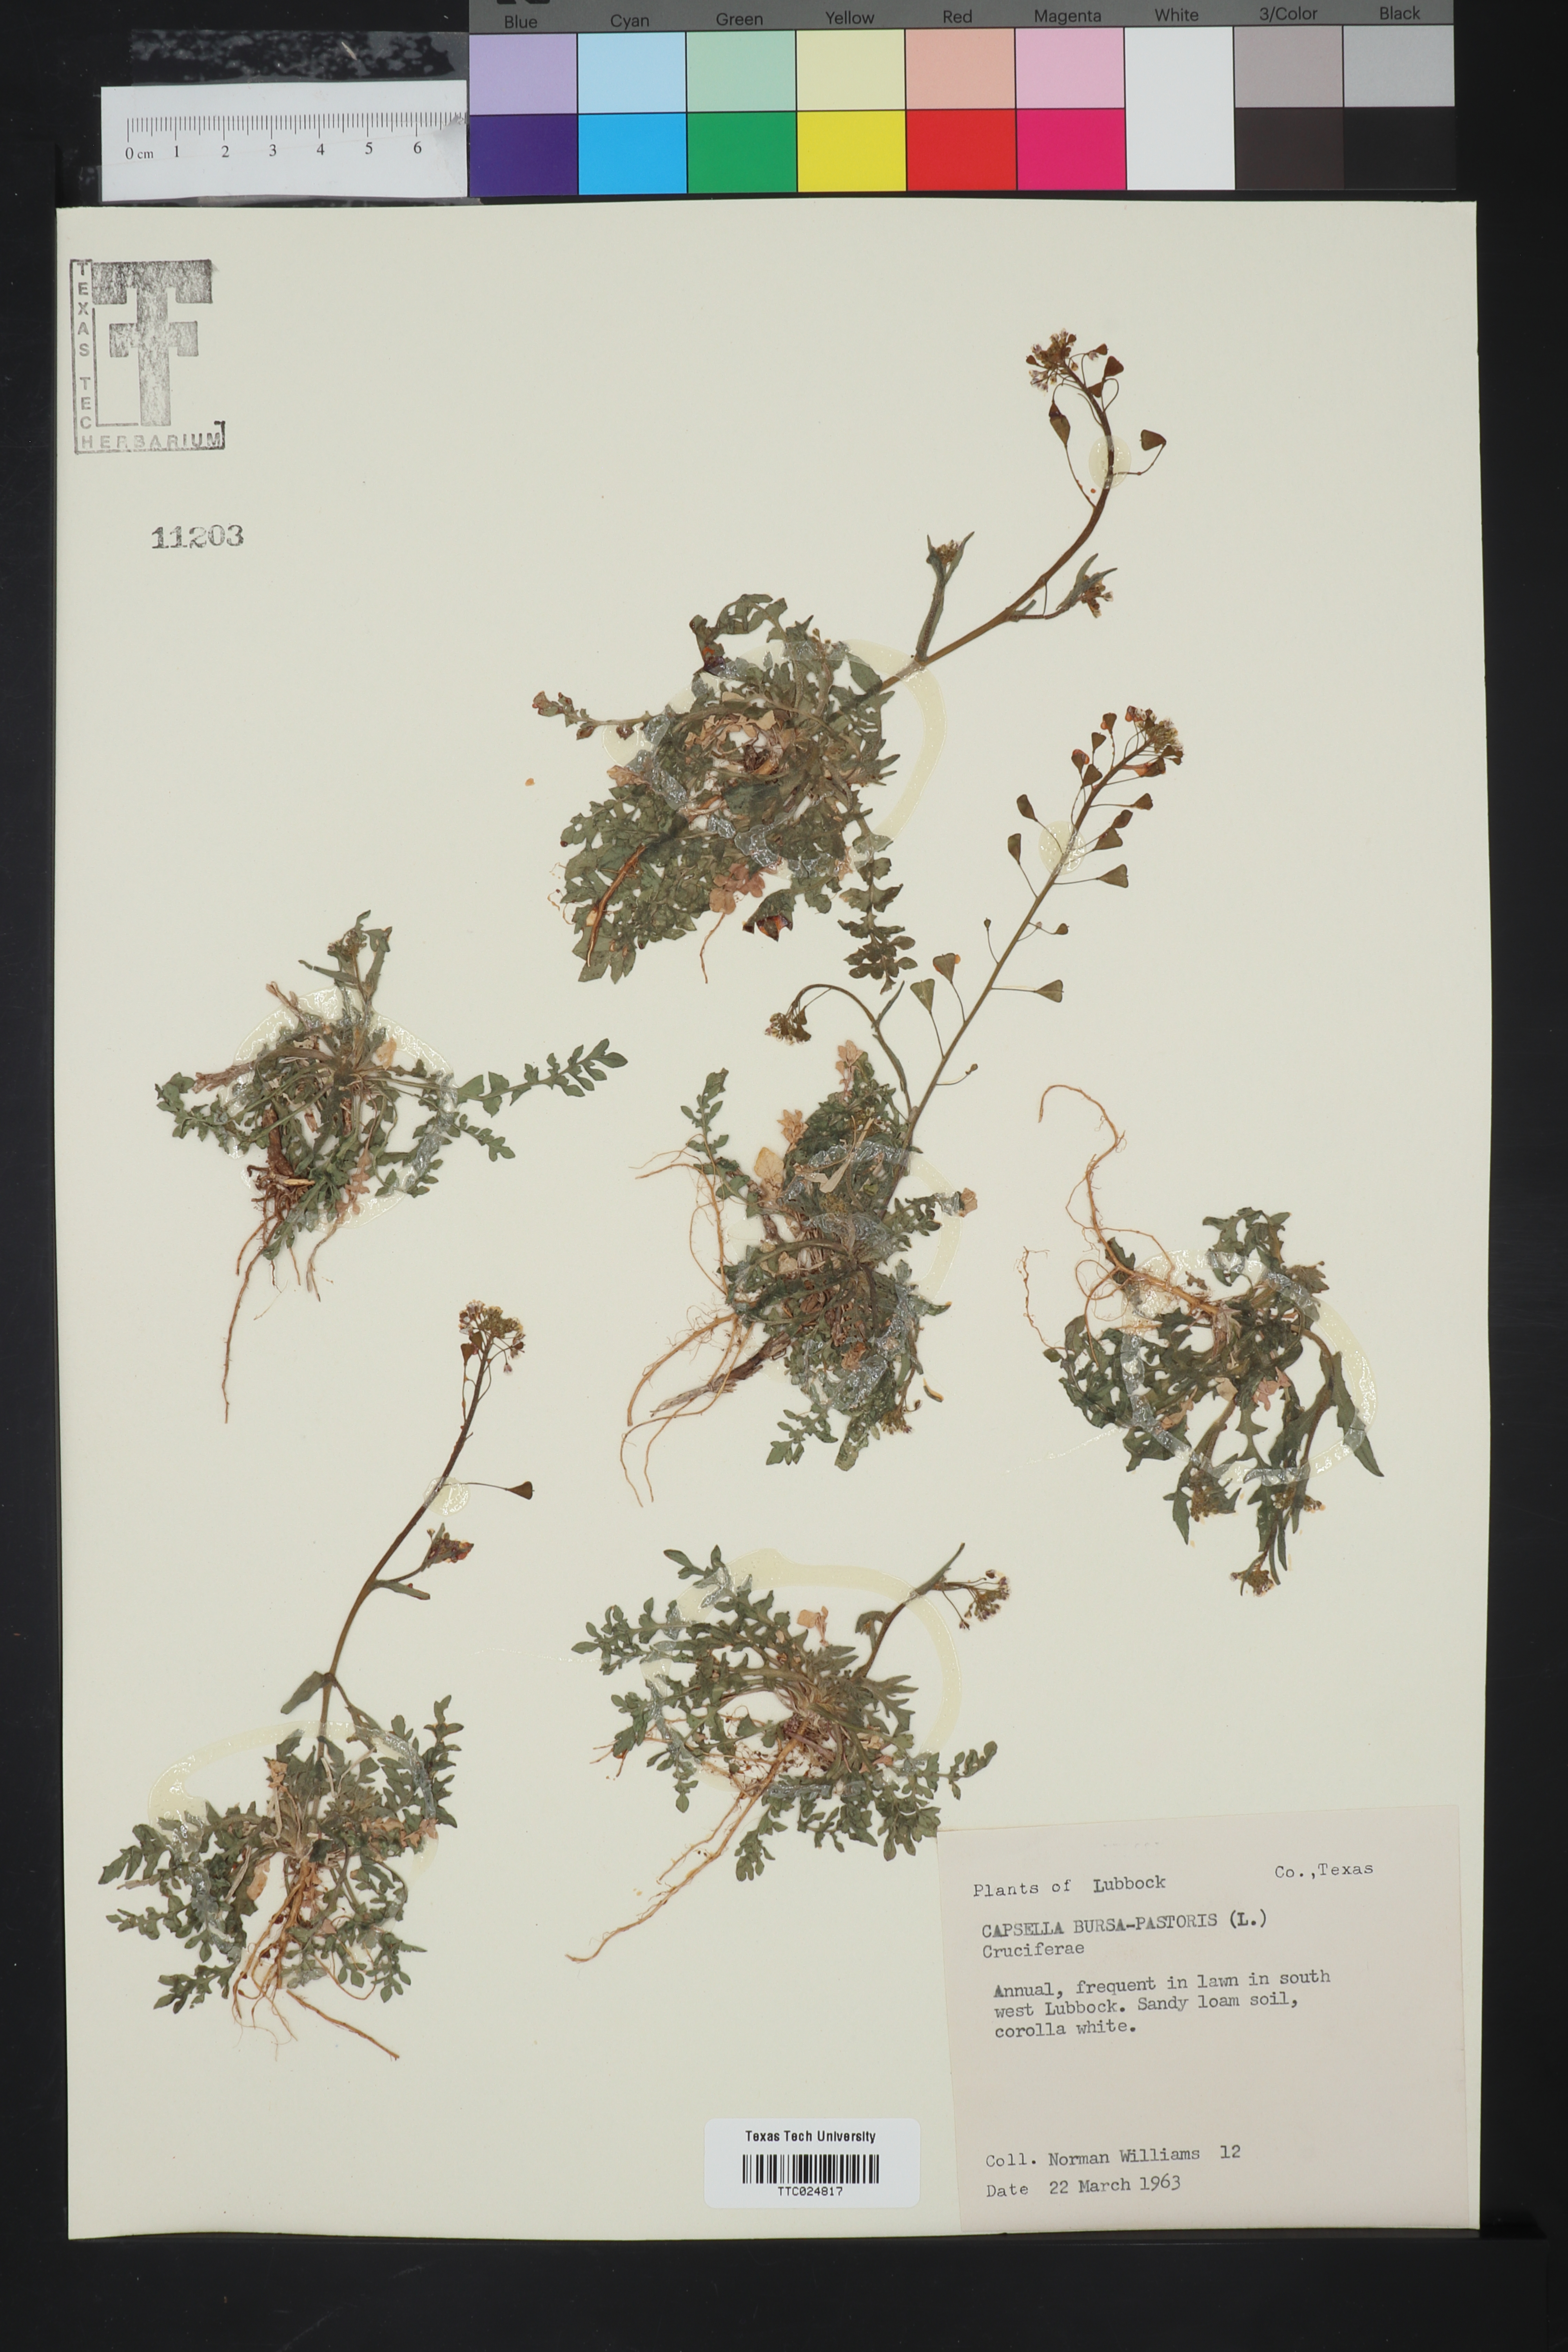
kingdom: Plantae
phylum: Tracheophyta
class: Magnoliopsida
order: Brassicales
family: Brassicaceae
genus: Capsella
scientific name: Capsella bursa-pastoris
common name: Shepherd's purse
